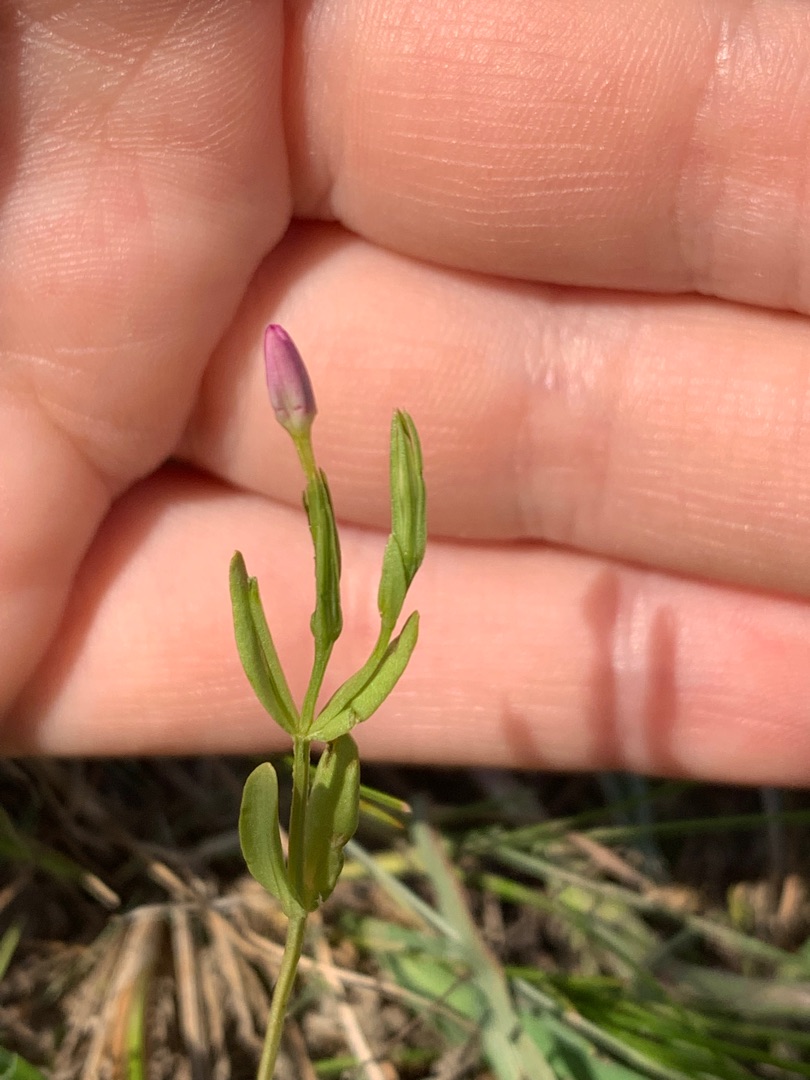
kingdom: Plantae
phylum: Tracheophyta
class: Magnoliopsida
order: Gentianales
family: Gentianaceae
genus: Centaurium
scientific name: Centaurium pulchellum
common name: Liden tusindgylden
